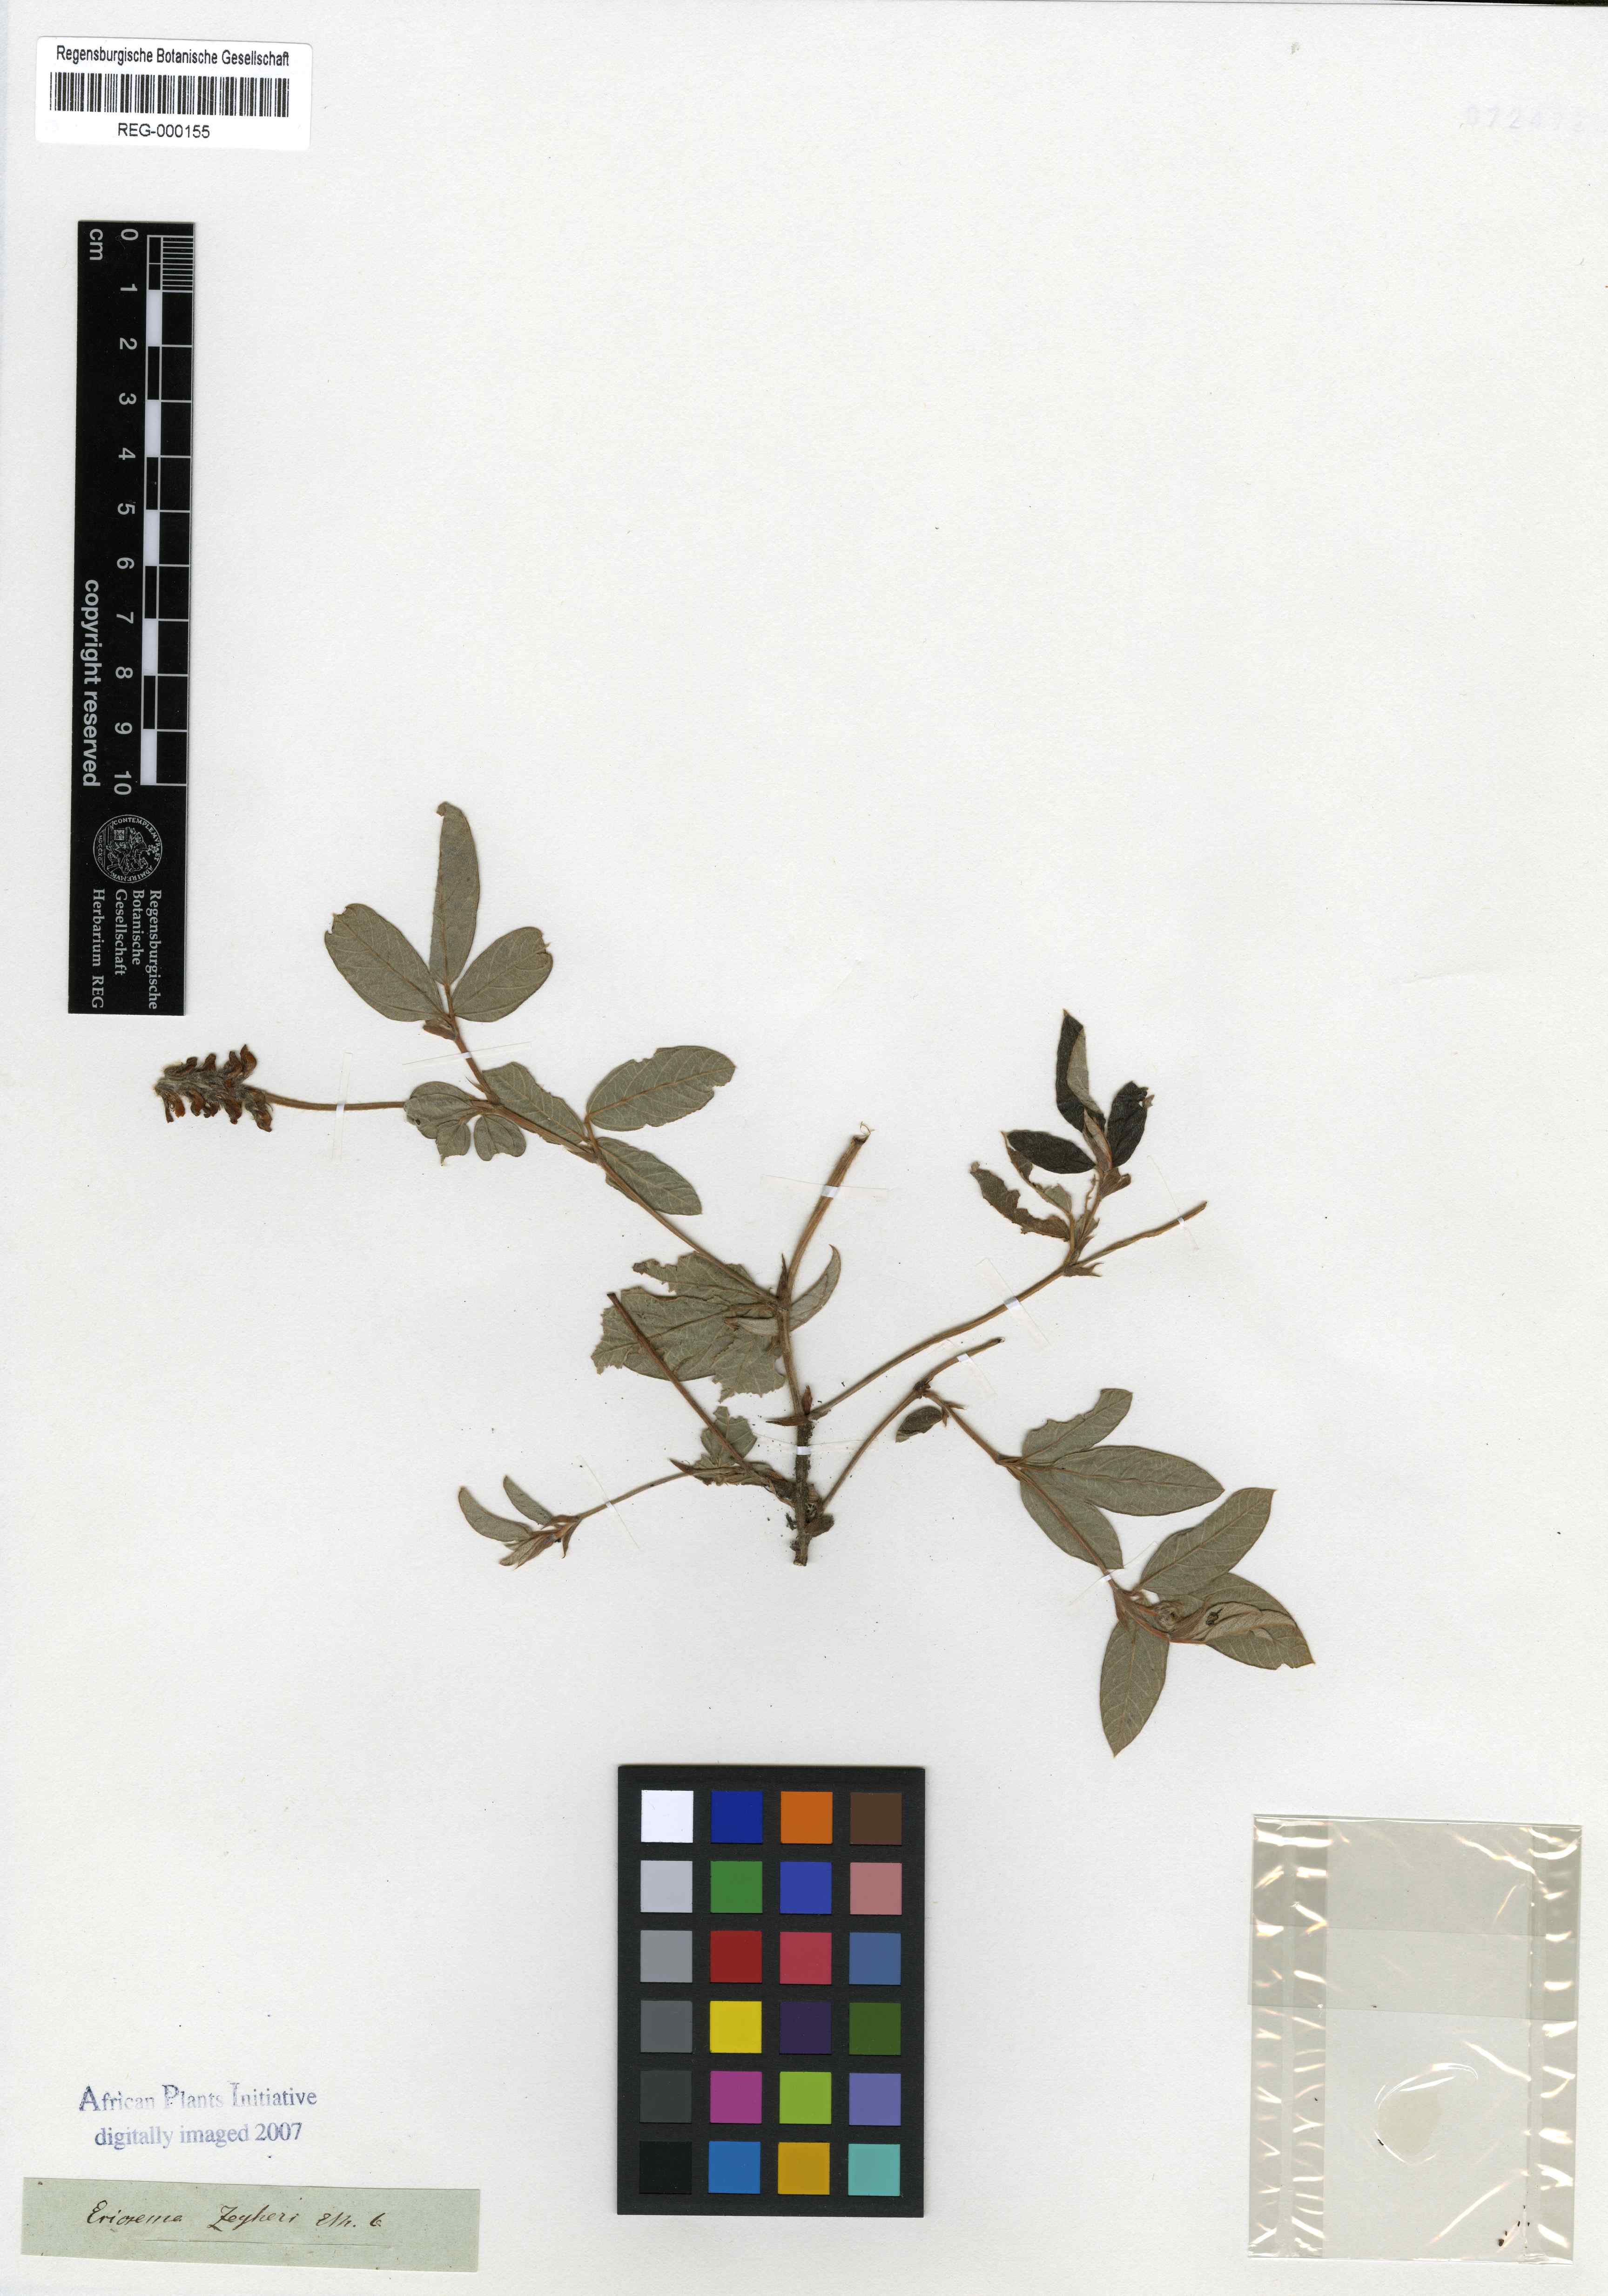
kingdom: Plantae
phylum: Tracheophyta
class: Magnoliopsida
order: Fabales
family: Fabaceae
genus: Eriosema
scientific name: Eriosema squarrosum
